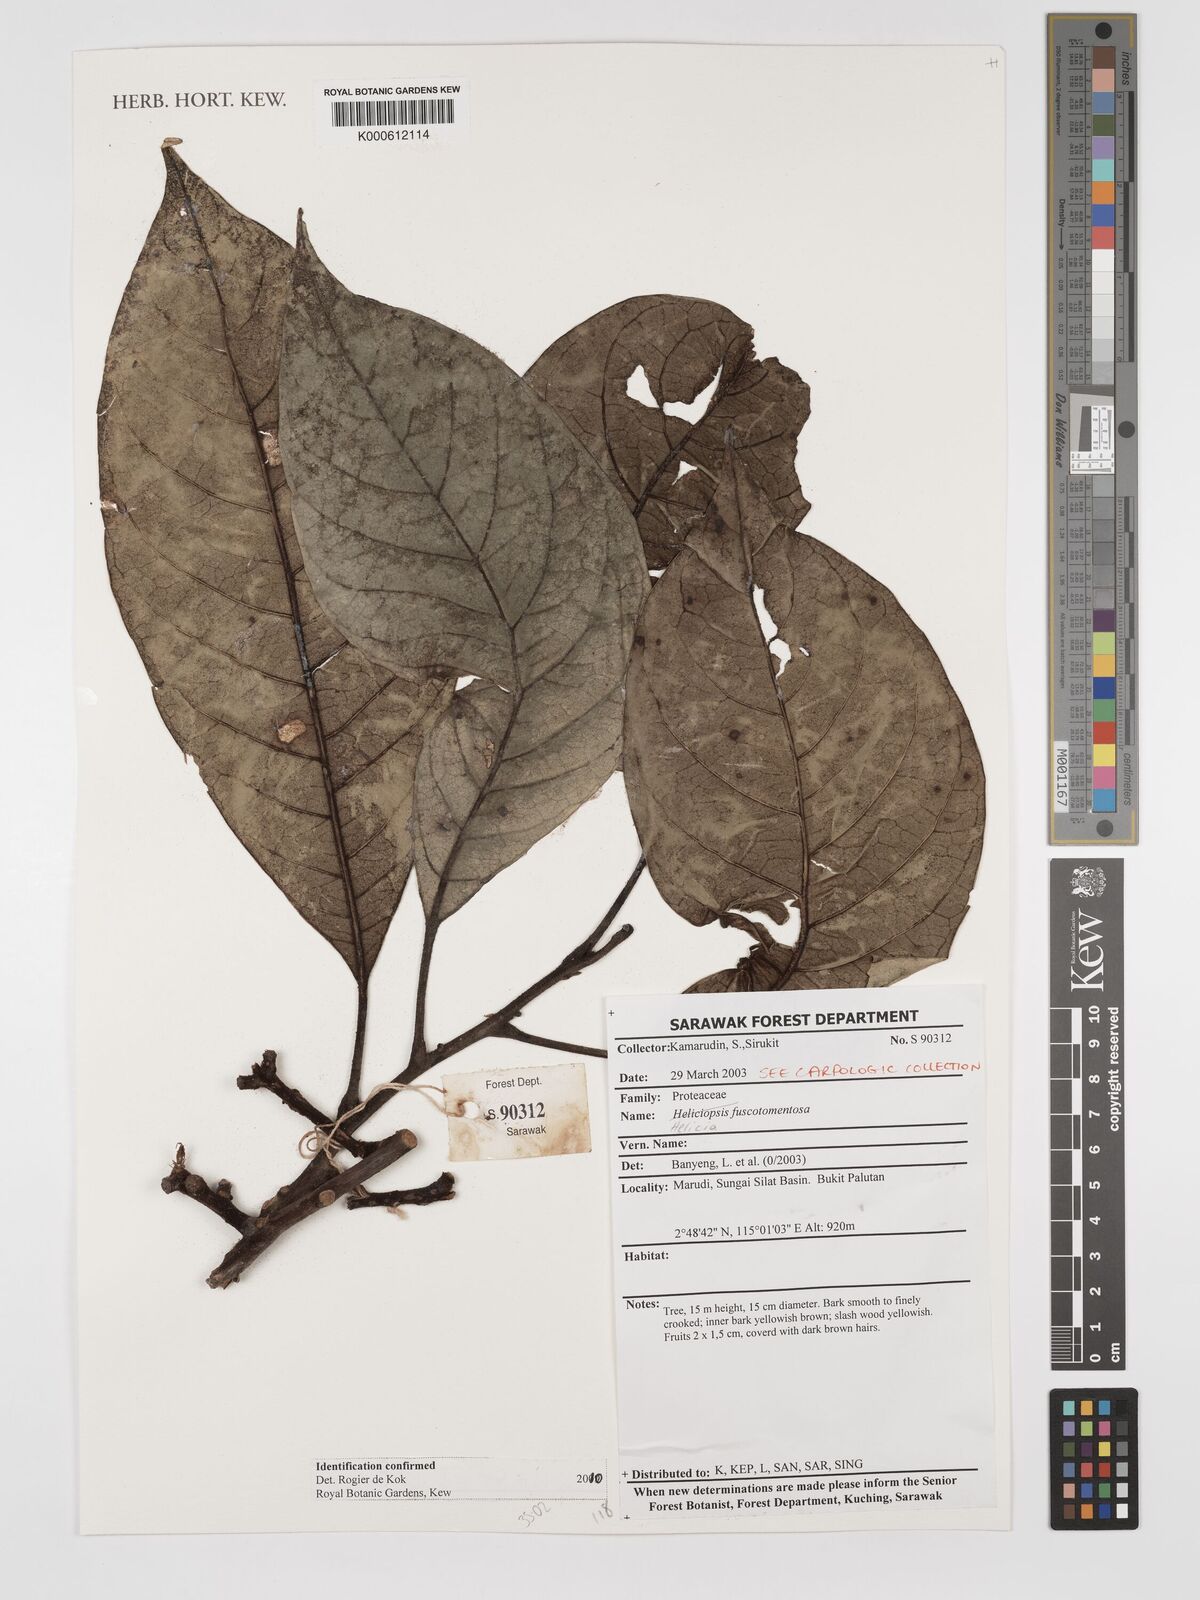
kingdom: Plantae
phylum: Tracheophyta
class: Magnoliopsida
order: Proteales
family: Proteaceae
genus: Helicia
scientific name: Helicia fuscotomentosa
